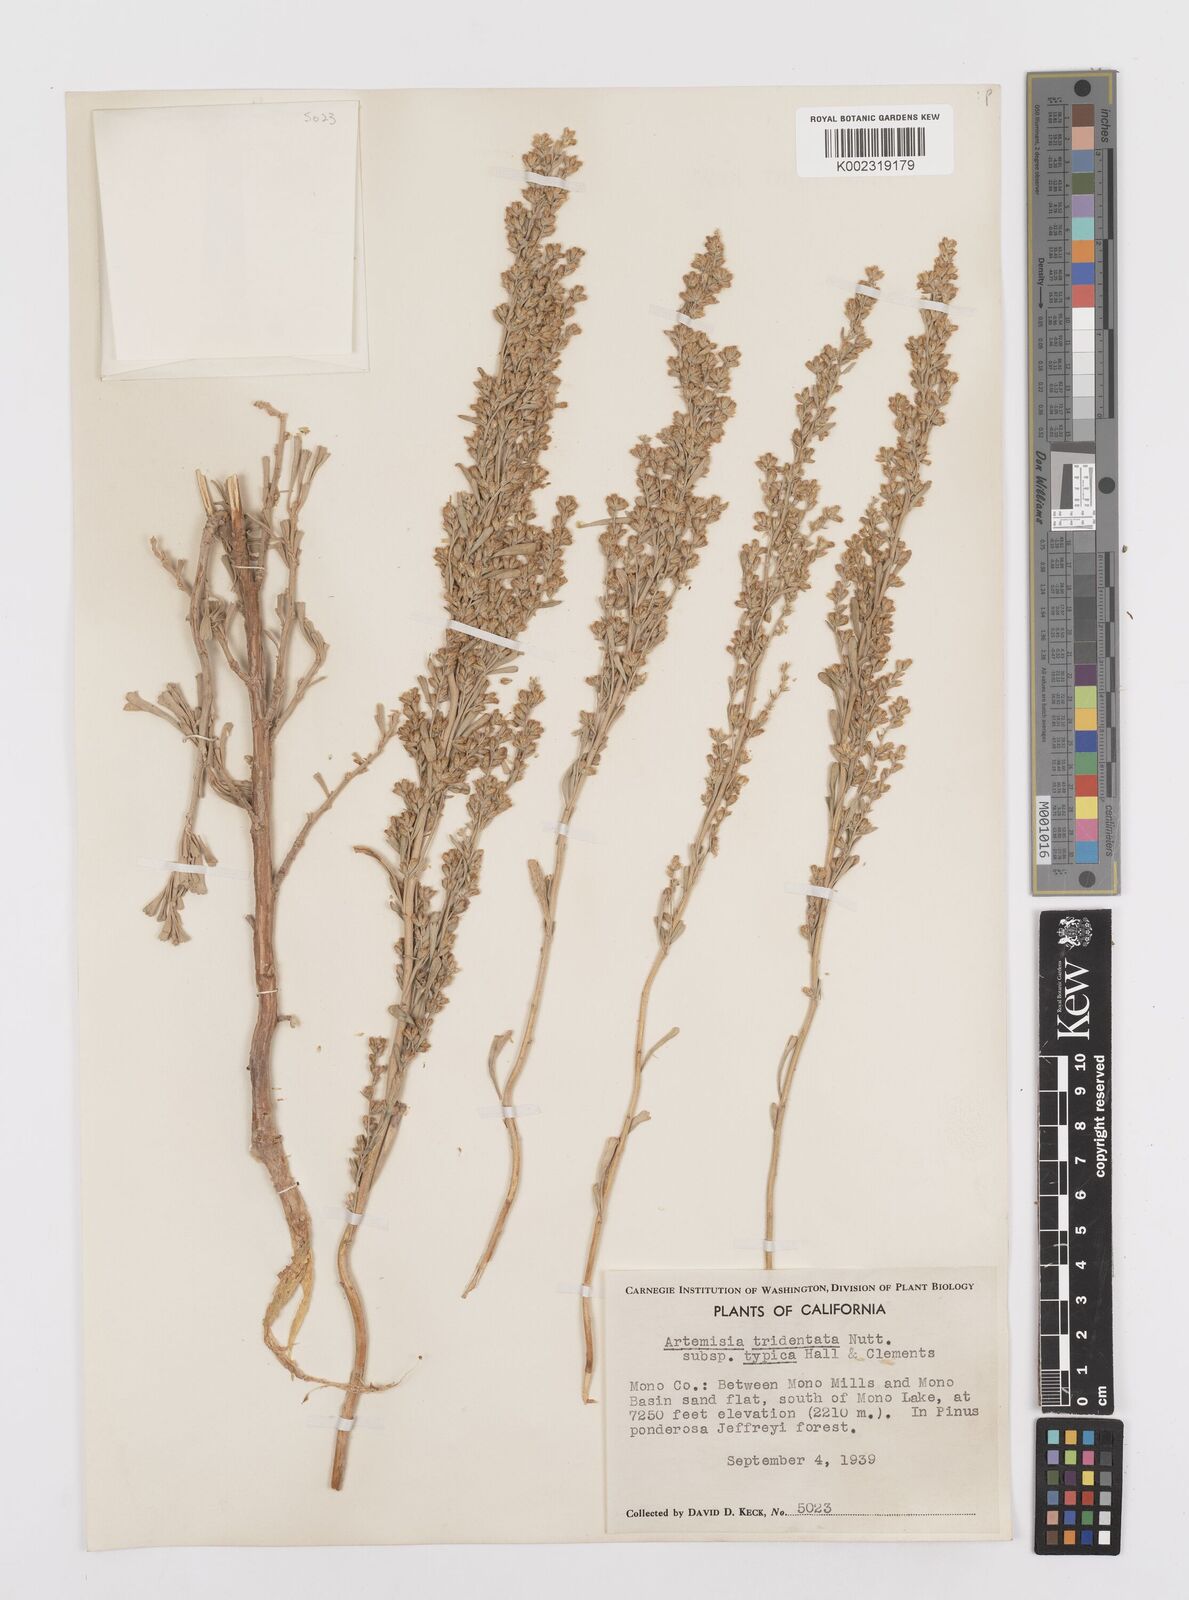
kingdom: Plantae
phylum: Tracheophyta
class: Magnoliopsida
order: Asterales
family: Asteraceae
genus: Artemisia
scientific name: Artemisia tridentata
